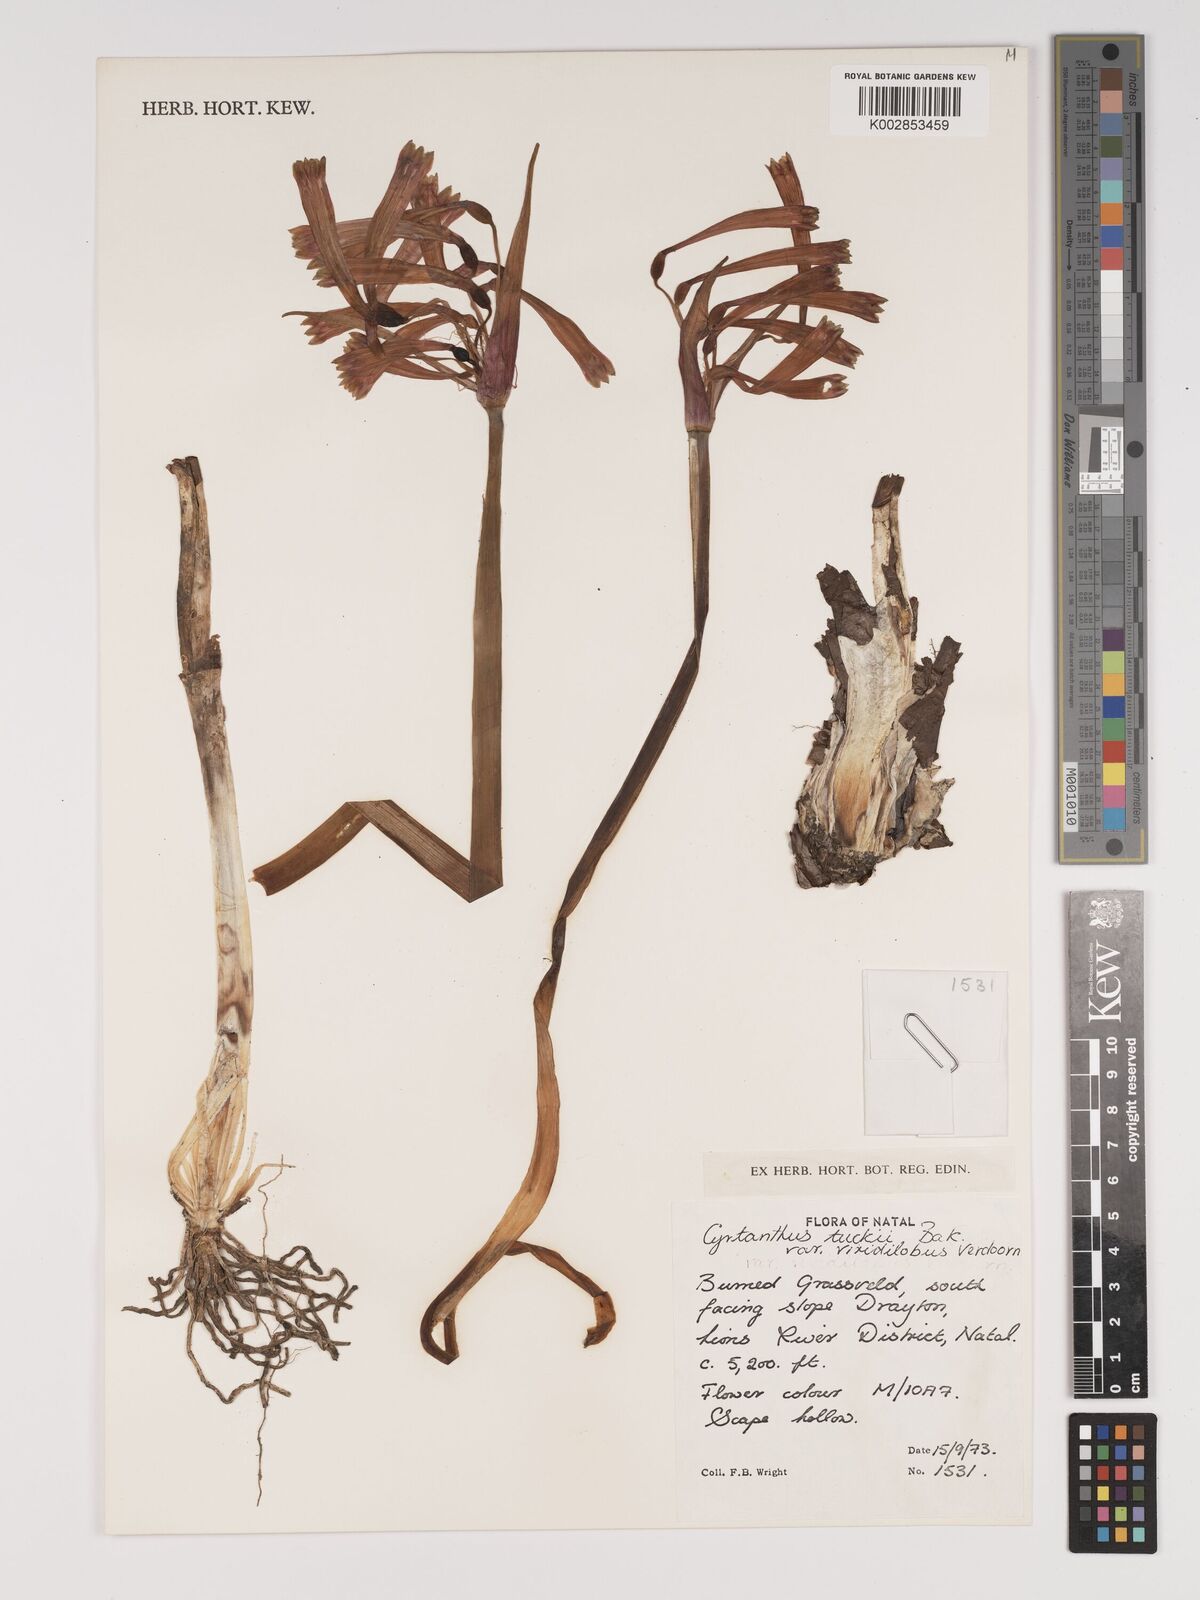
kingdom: Plantae
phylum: Tracheophyta
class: Liliopsida
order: Asparagales
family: Amaryllidaceae
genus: Cyrtanthus
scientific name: Cyrtanthus tuckii
